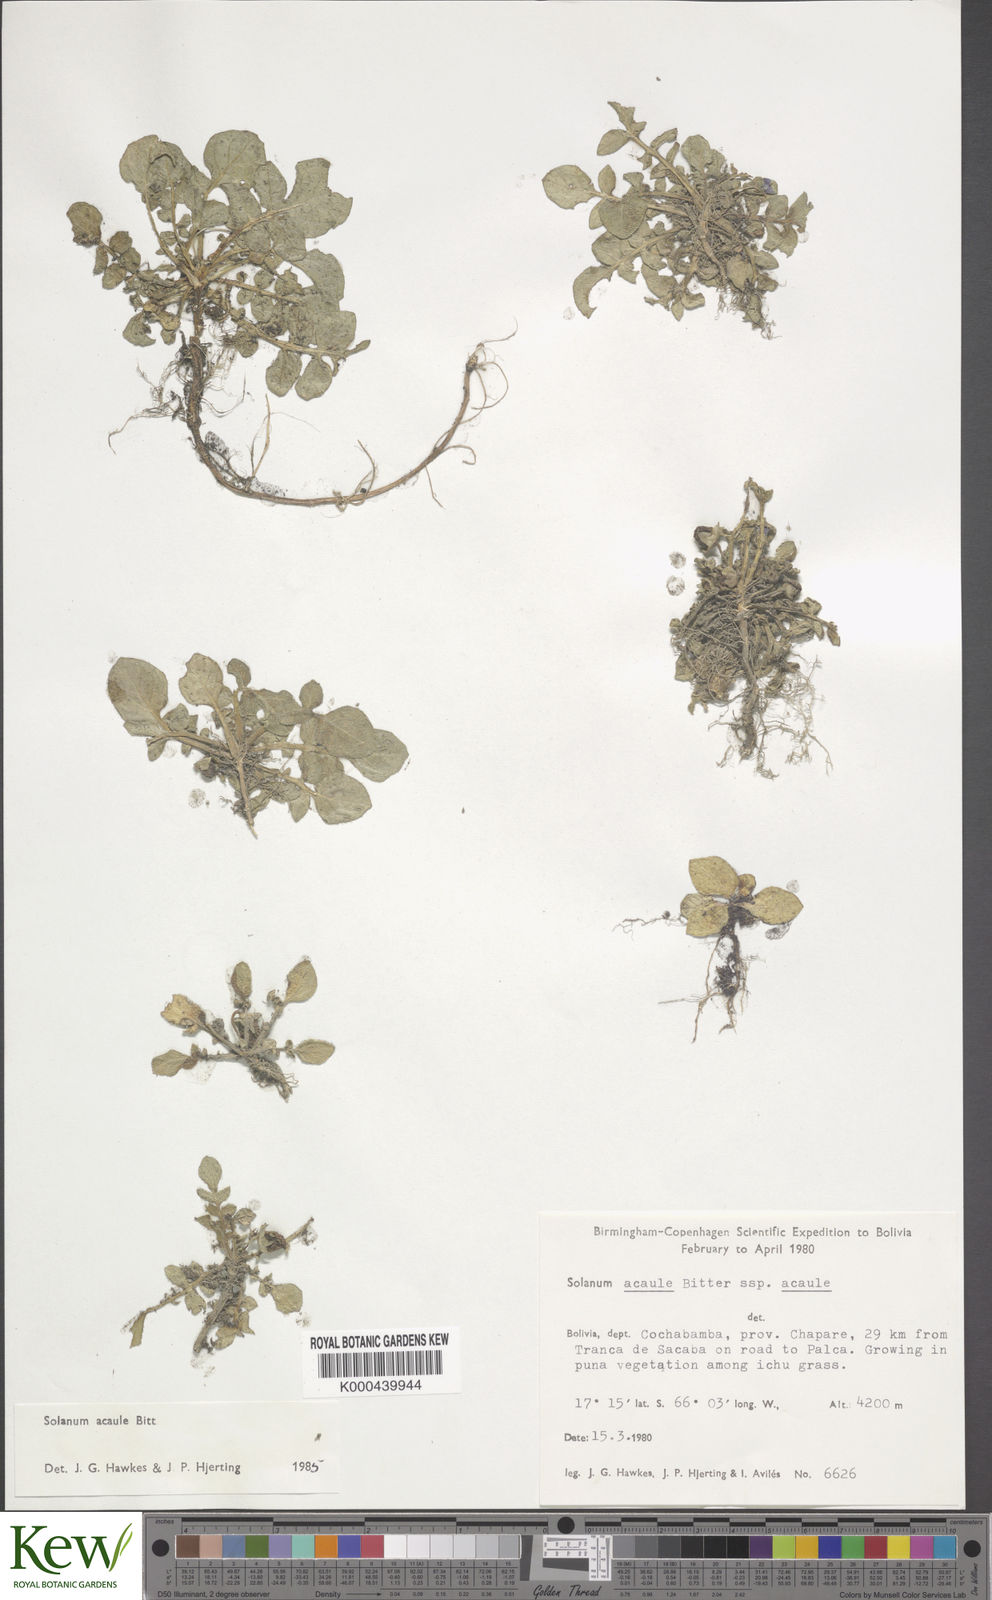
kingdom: Plantae
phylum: Tracheophyta
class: Magnoliopsida
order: Solanales
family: Solanaceae
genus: Solanum
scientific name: Solanum acaule
